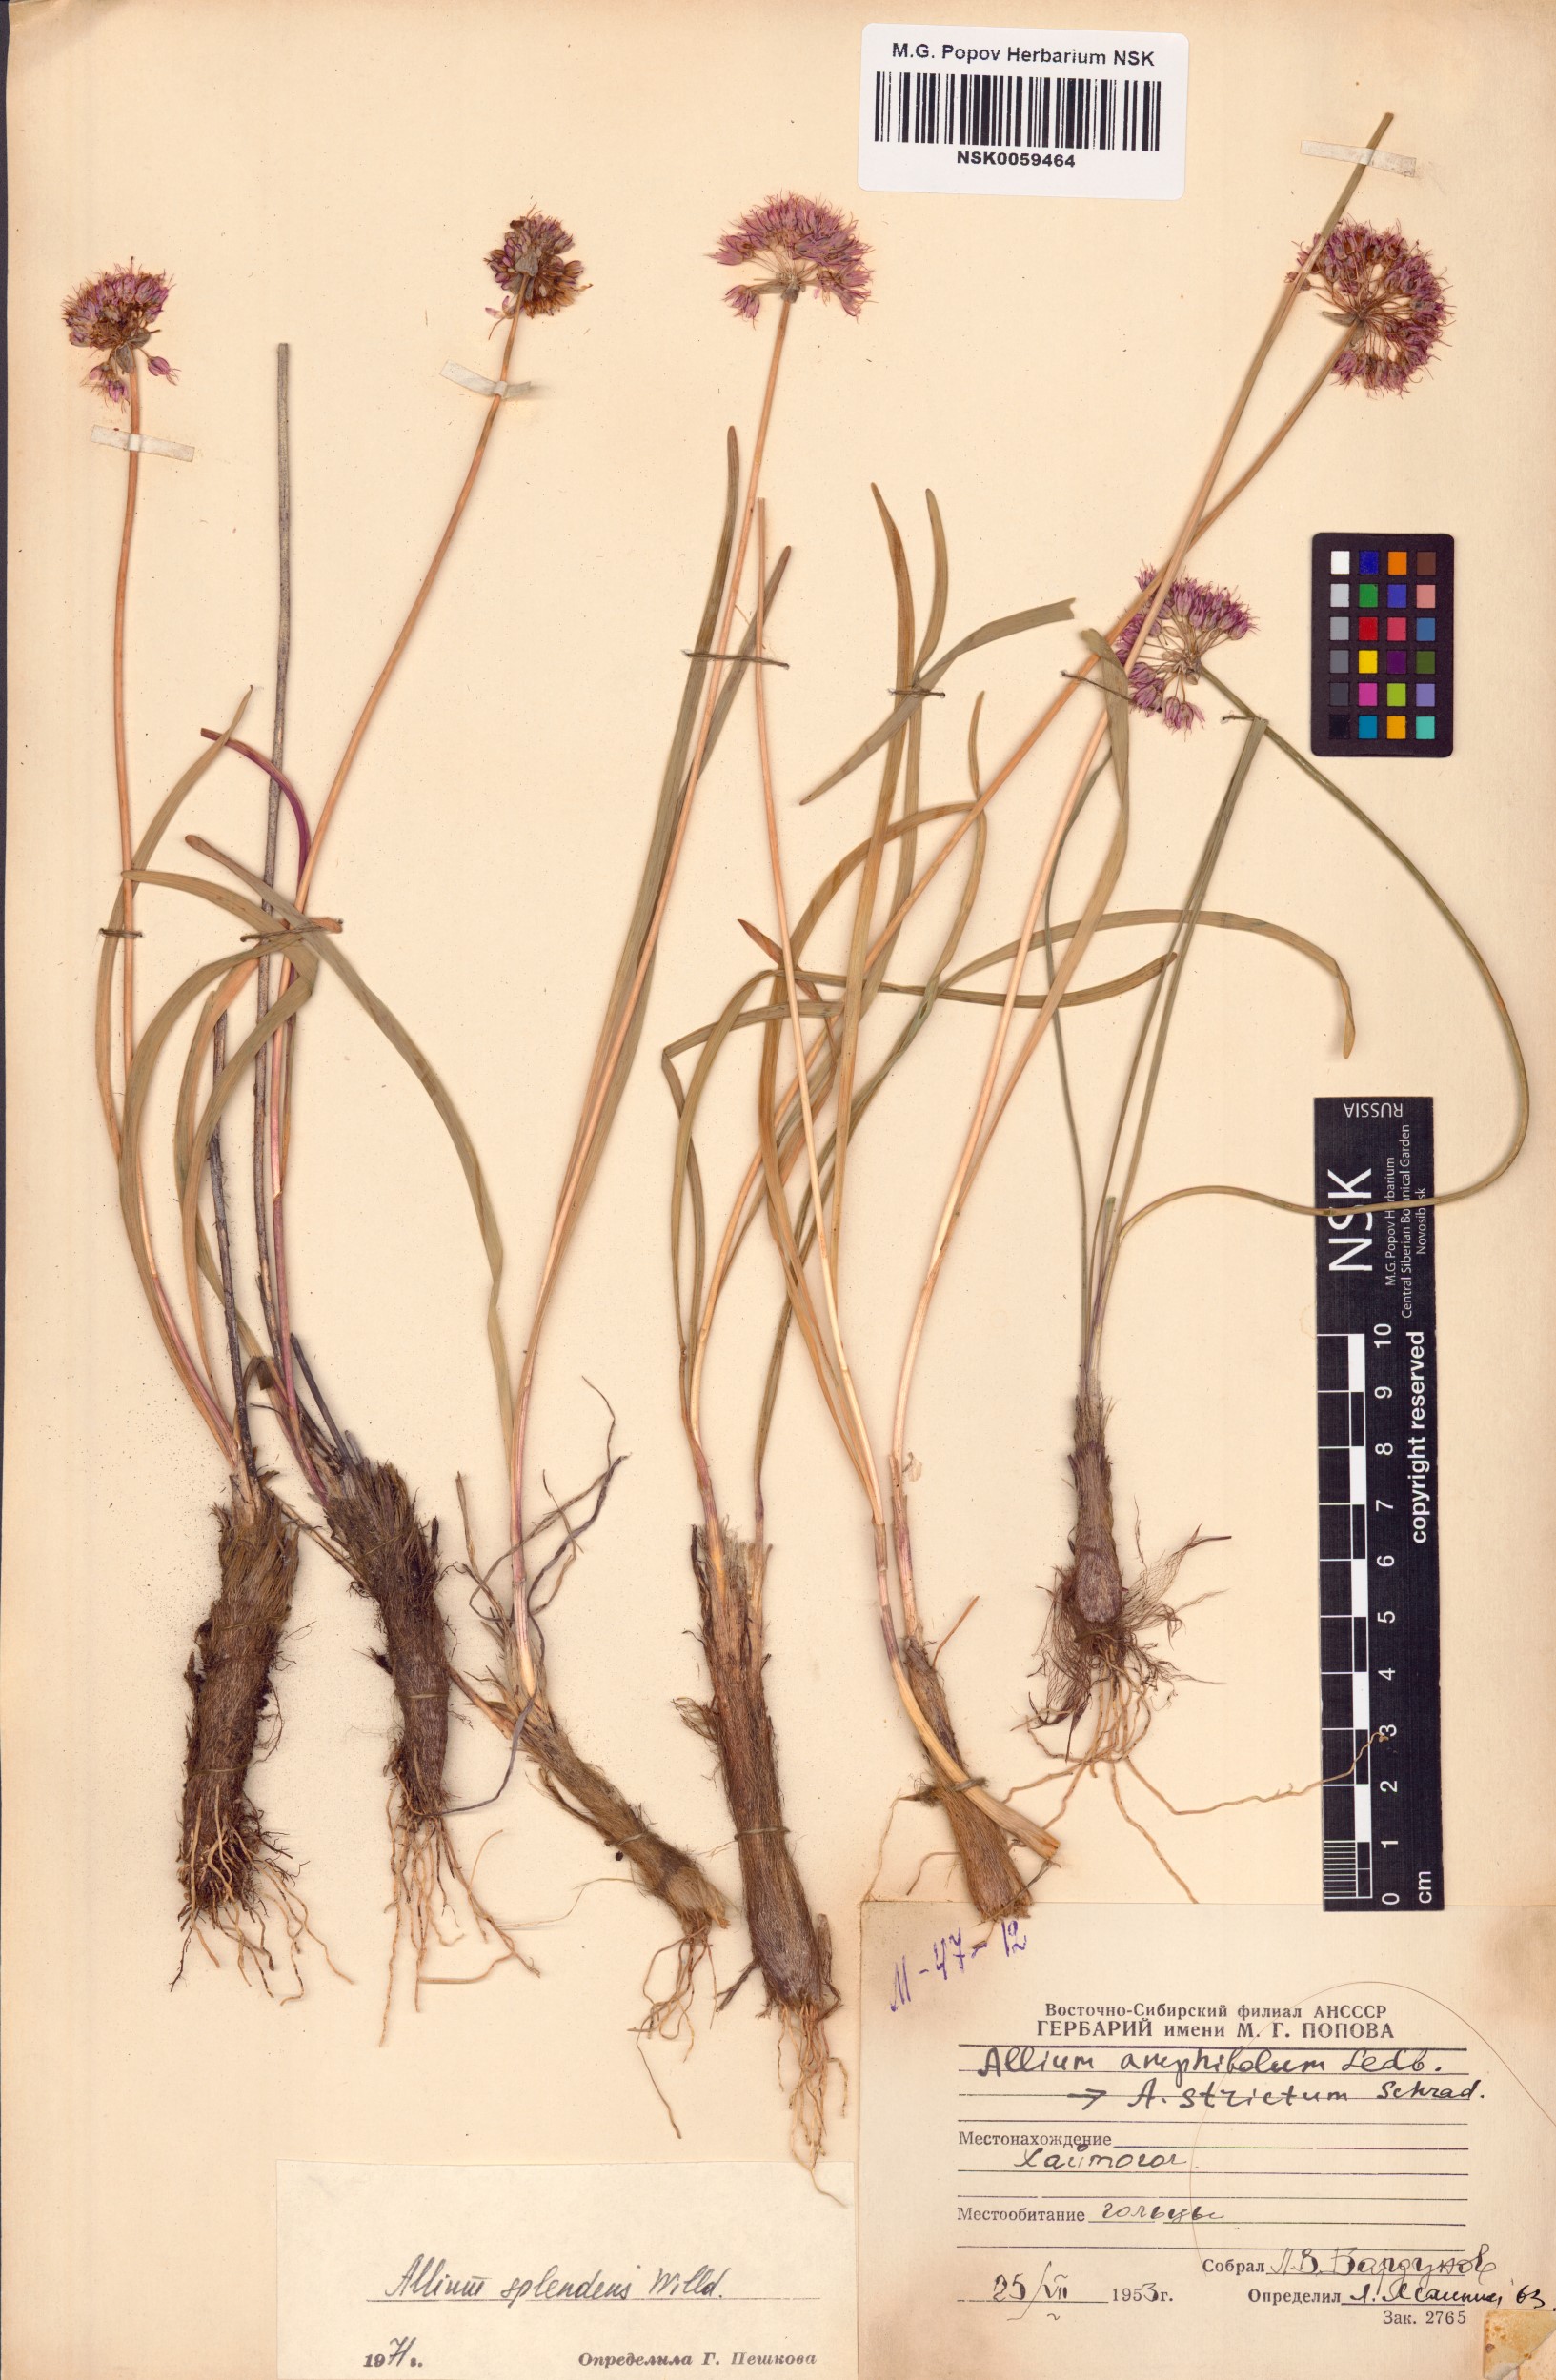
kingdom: Plantae
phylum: Tracheophyta
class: Liliopsida
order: Asparagales
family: Amaryllidaceae
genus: Allium
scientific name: Allium splendens
